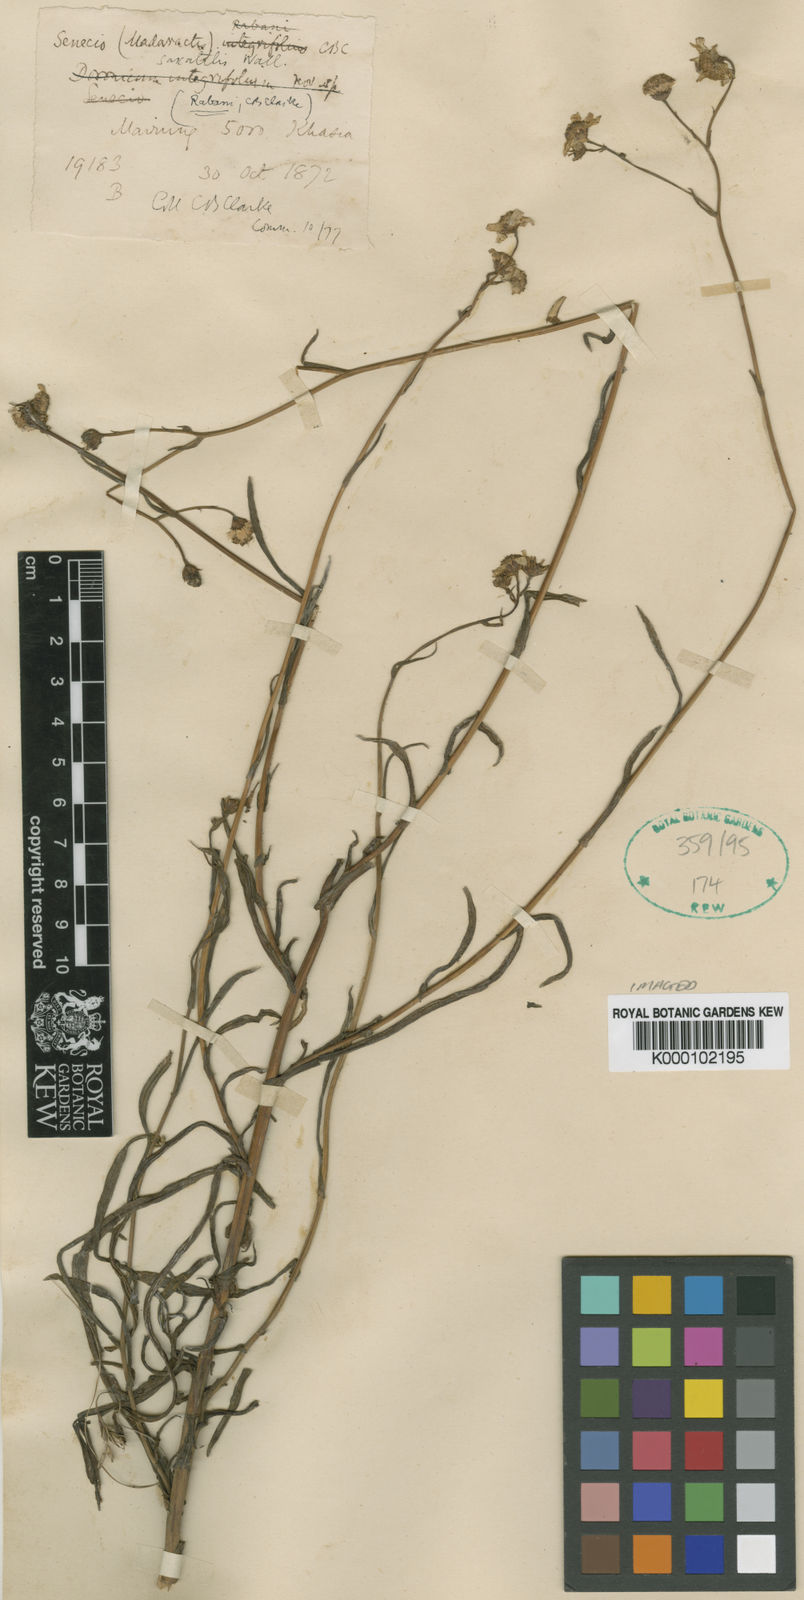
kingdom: Plantae
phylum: Tracheophyta
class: Magnoliopsida
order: Asterales
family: Asteraceae
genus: Senecio
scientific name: Senecio wightii
